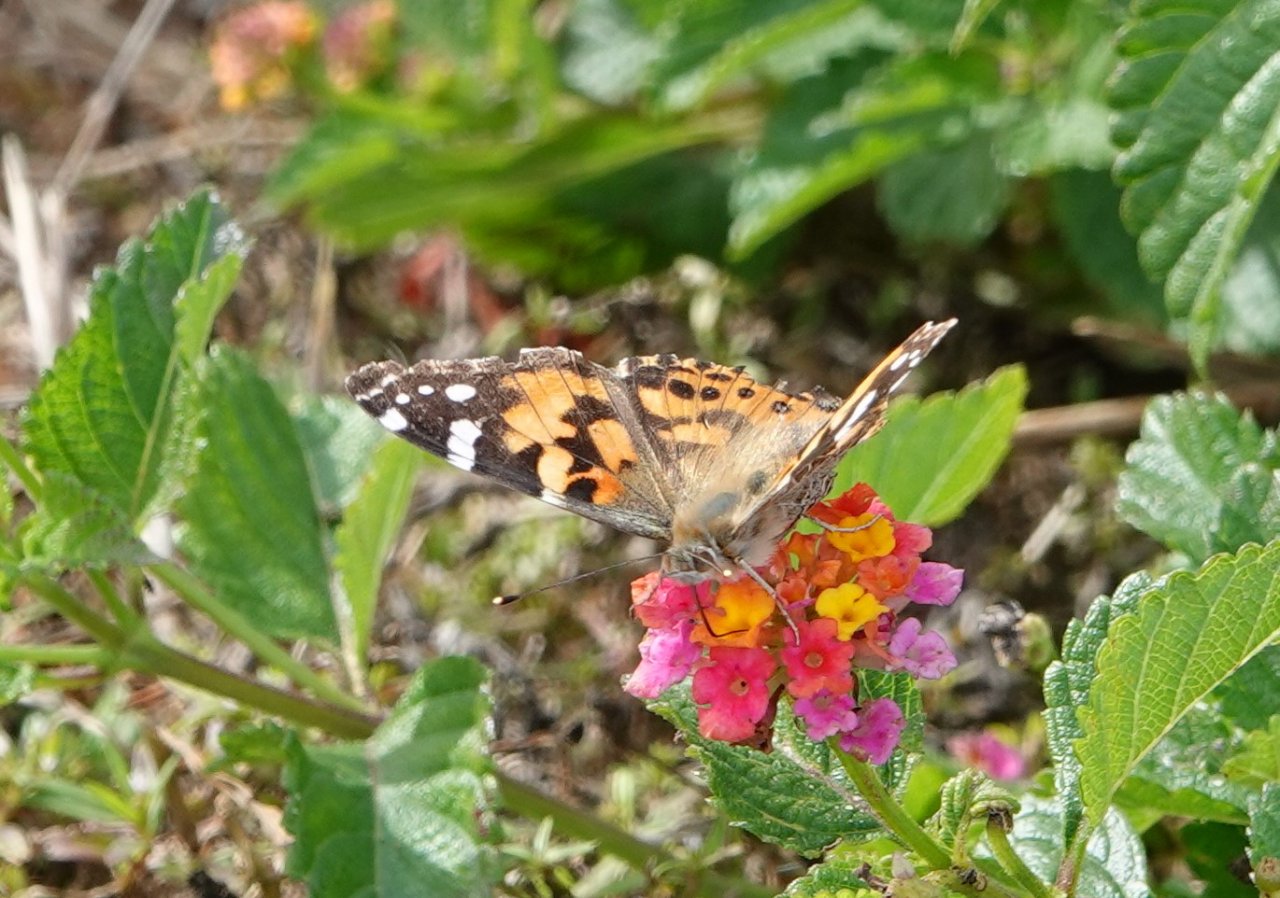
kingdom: Animalia
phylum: Arthropoda
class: Insecta
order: Lepidoptera
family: Nymphalidae
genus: Vanessa
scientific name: Vanessa cardui
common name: Painted Lady
